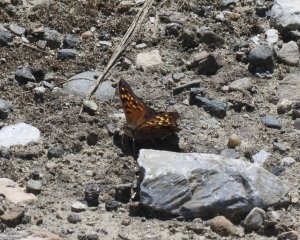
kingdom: Animalia
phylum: Arthropoda
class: Insecta
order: Lepidoptera
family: Nymphalidae
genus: Asterocampa
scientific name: Asterocampa clyton
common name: Tawny Emperor
